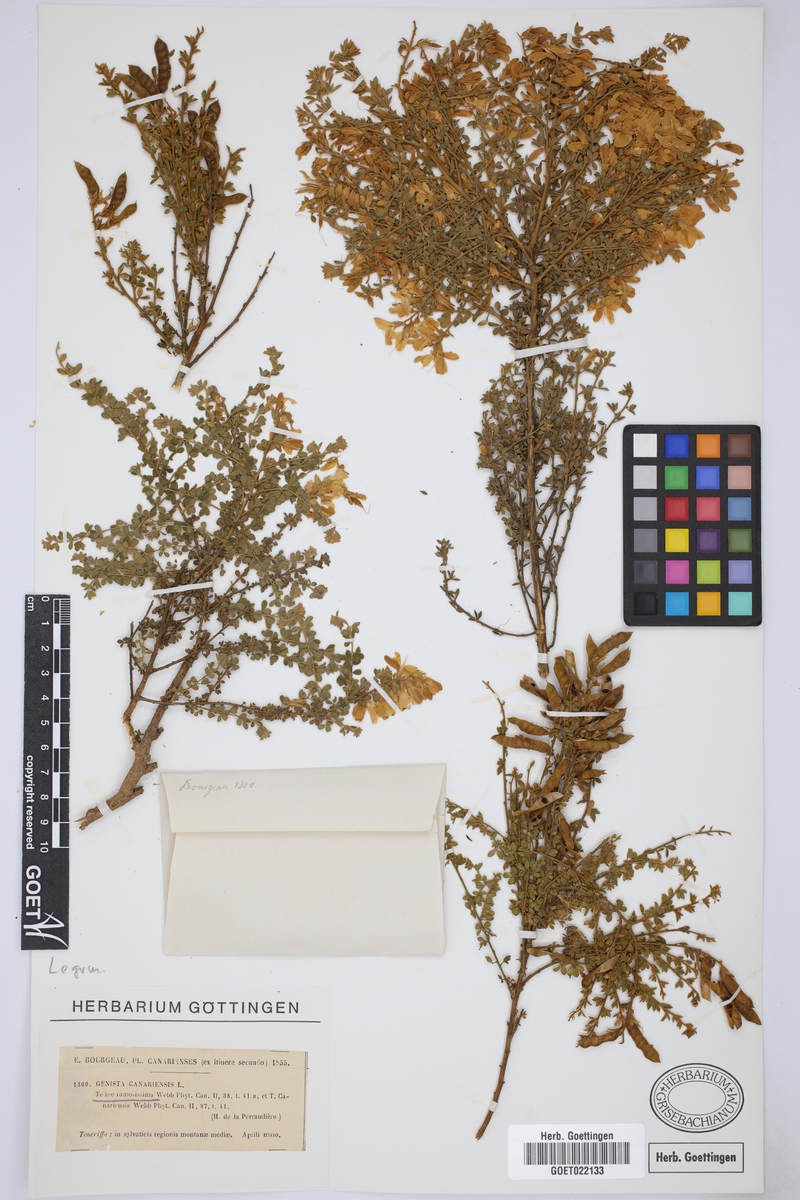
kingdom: Plantae
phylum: Tracheophyta
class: Magnoliopsida
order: Fabales
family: Fabaceae
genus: Genista
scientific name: Genista canariensis
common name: Canary broom
